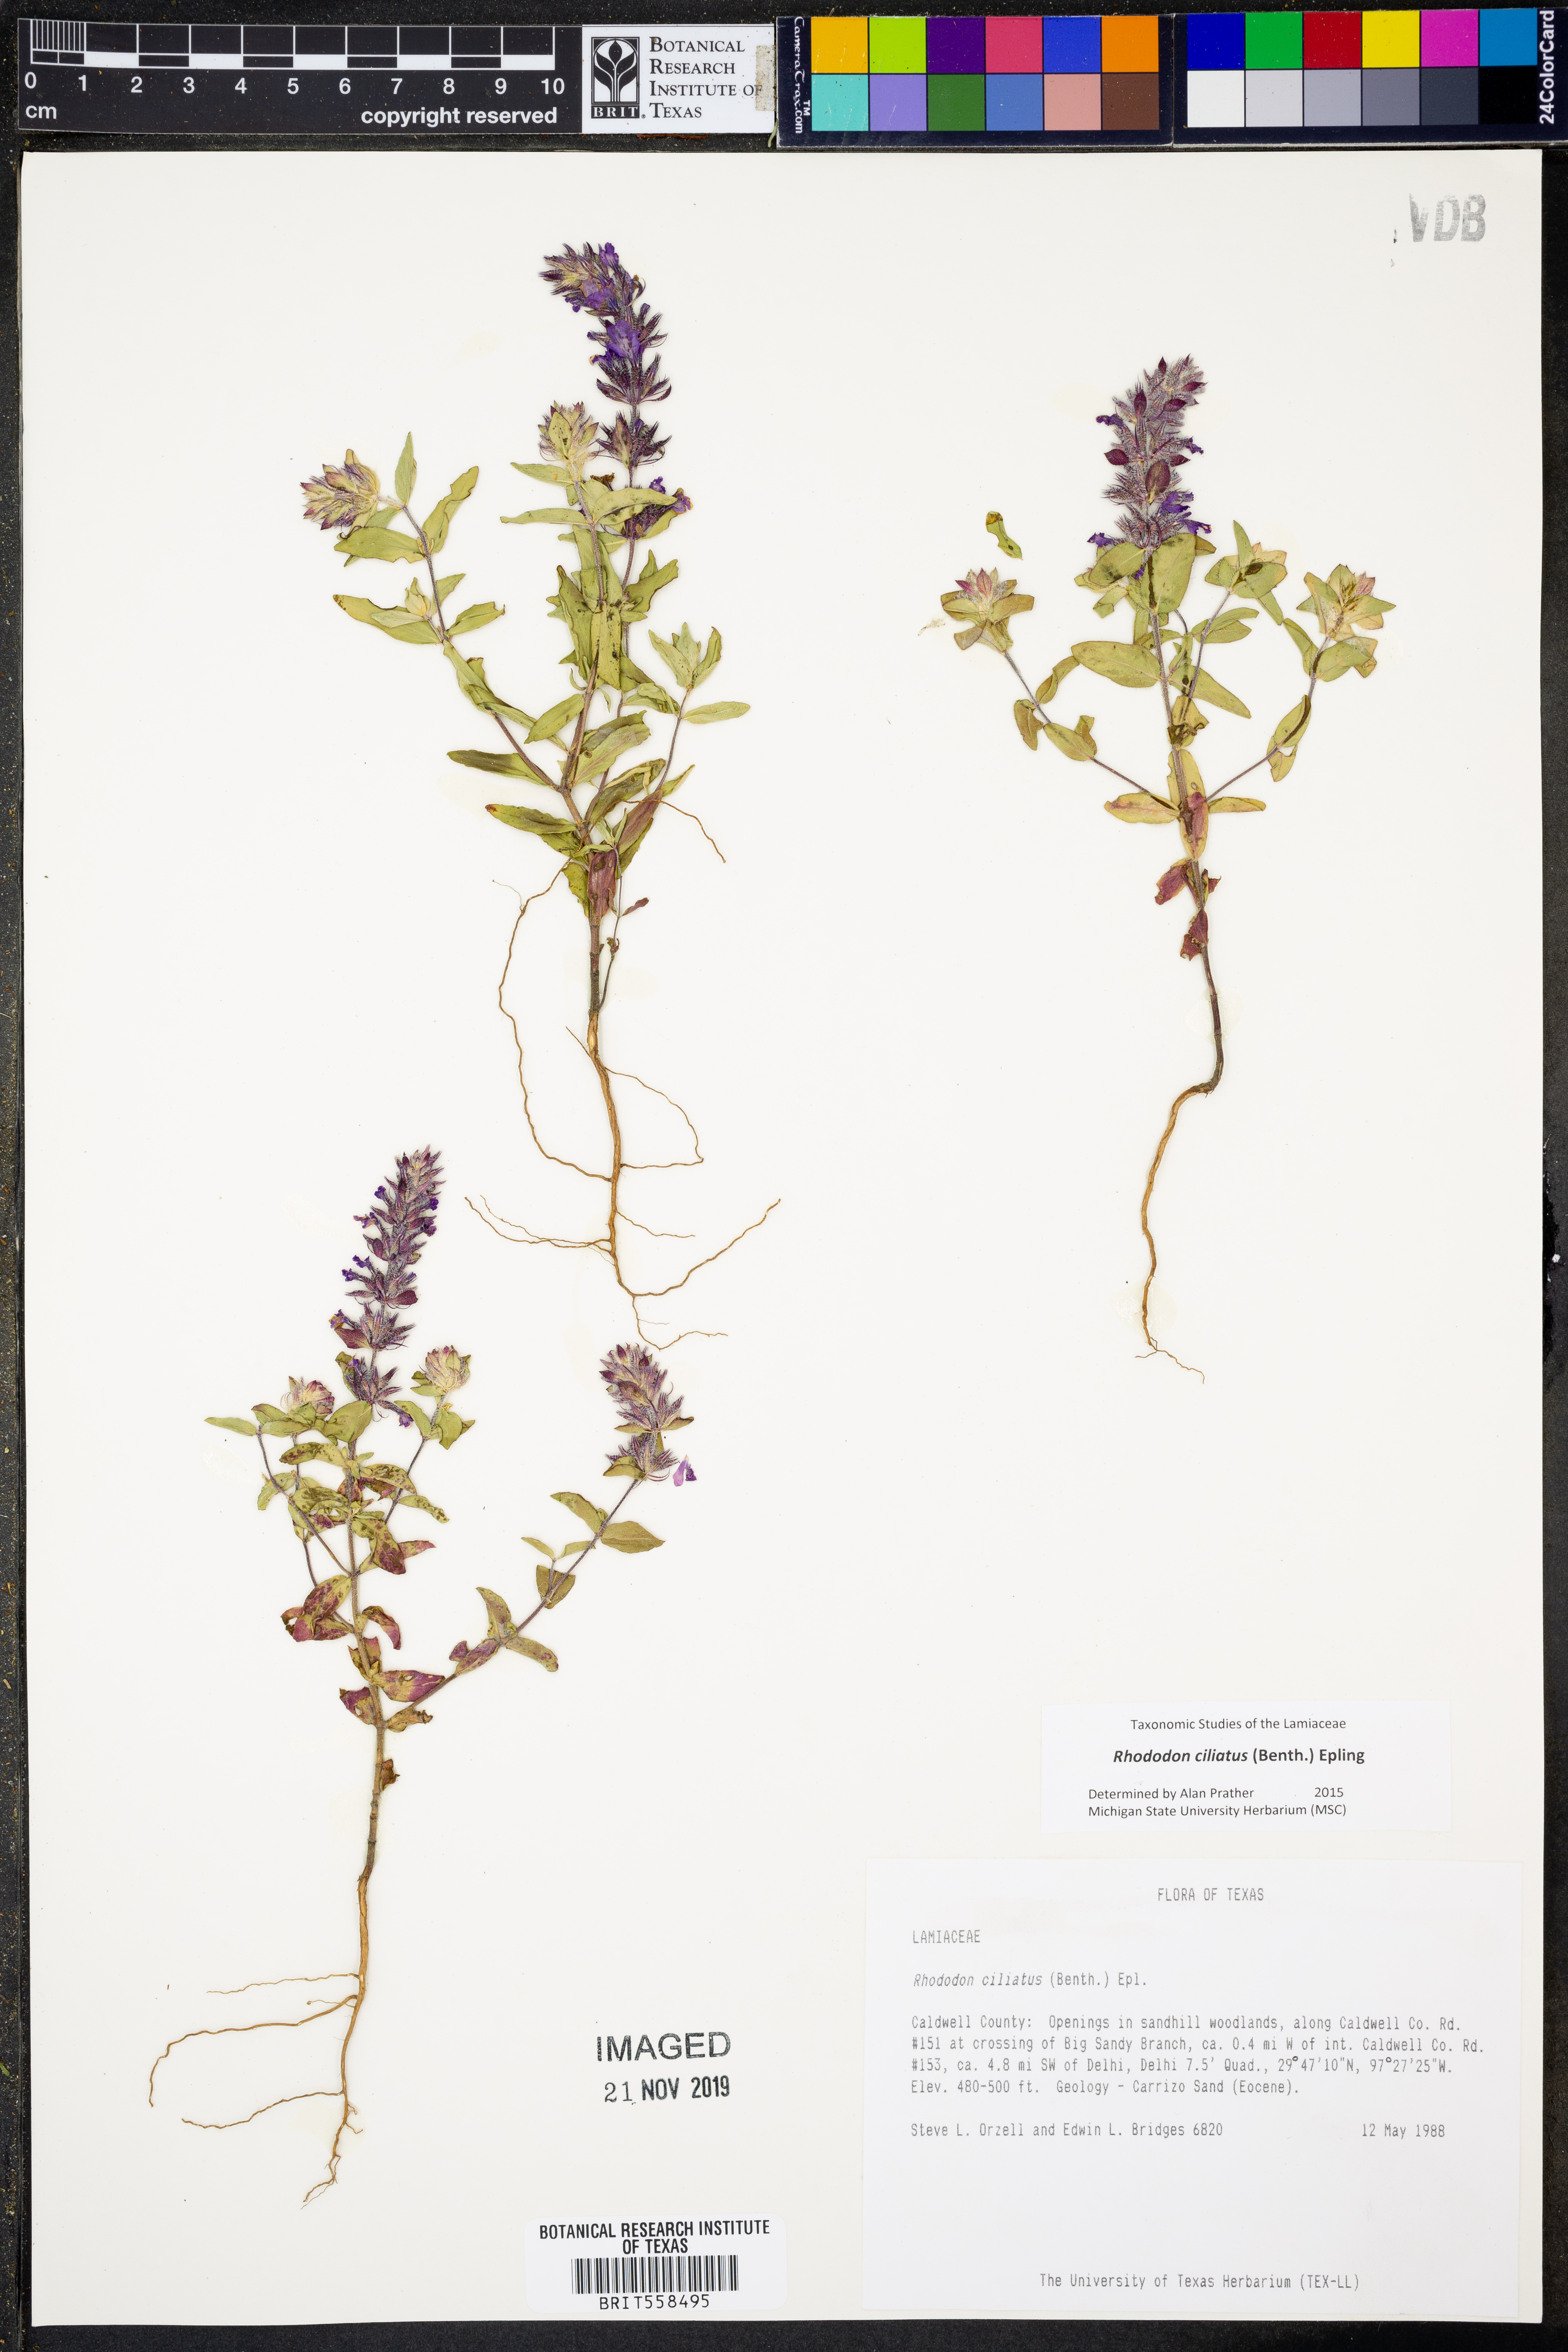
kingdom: Plantae
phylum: Tracheophyta
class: Magnoliopsida
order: Lamiales
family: Lamiaceae
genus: Rhododon
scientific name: Rhododon ciliatus
